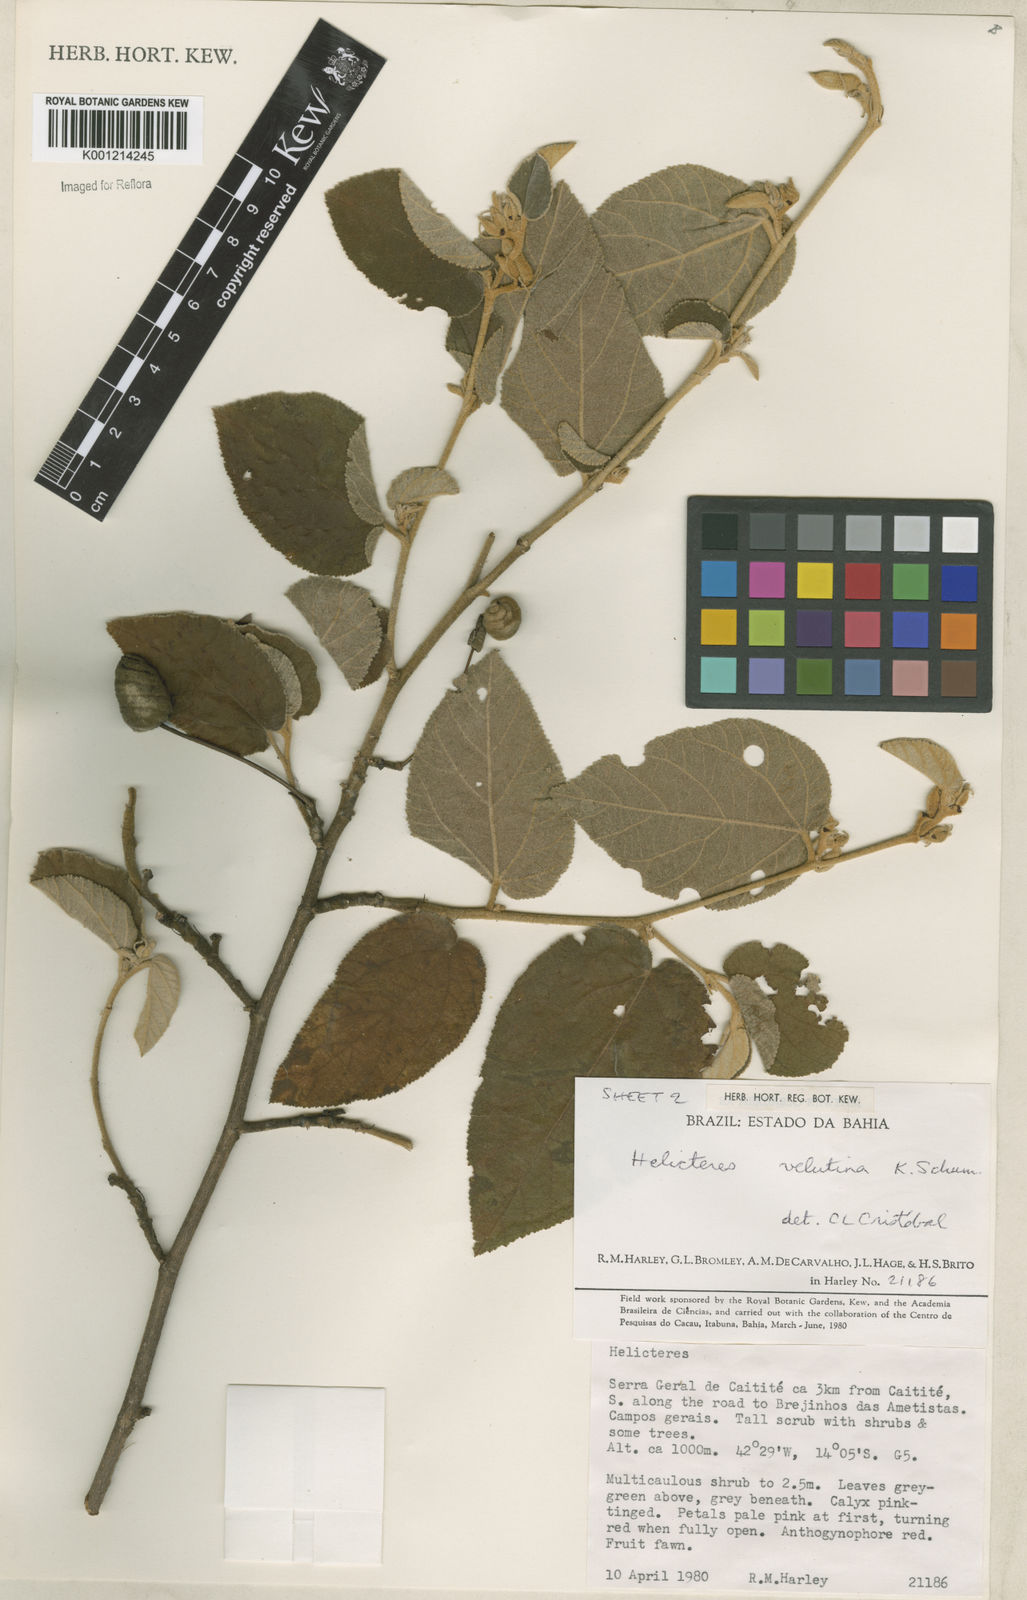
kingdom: Plantae
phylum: Tracheophyta
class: Magnoliopsida
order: Malvales
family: Malvaceae
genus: Helicteres
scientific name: Helicteres velutina
